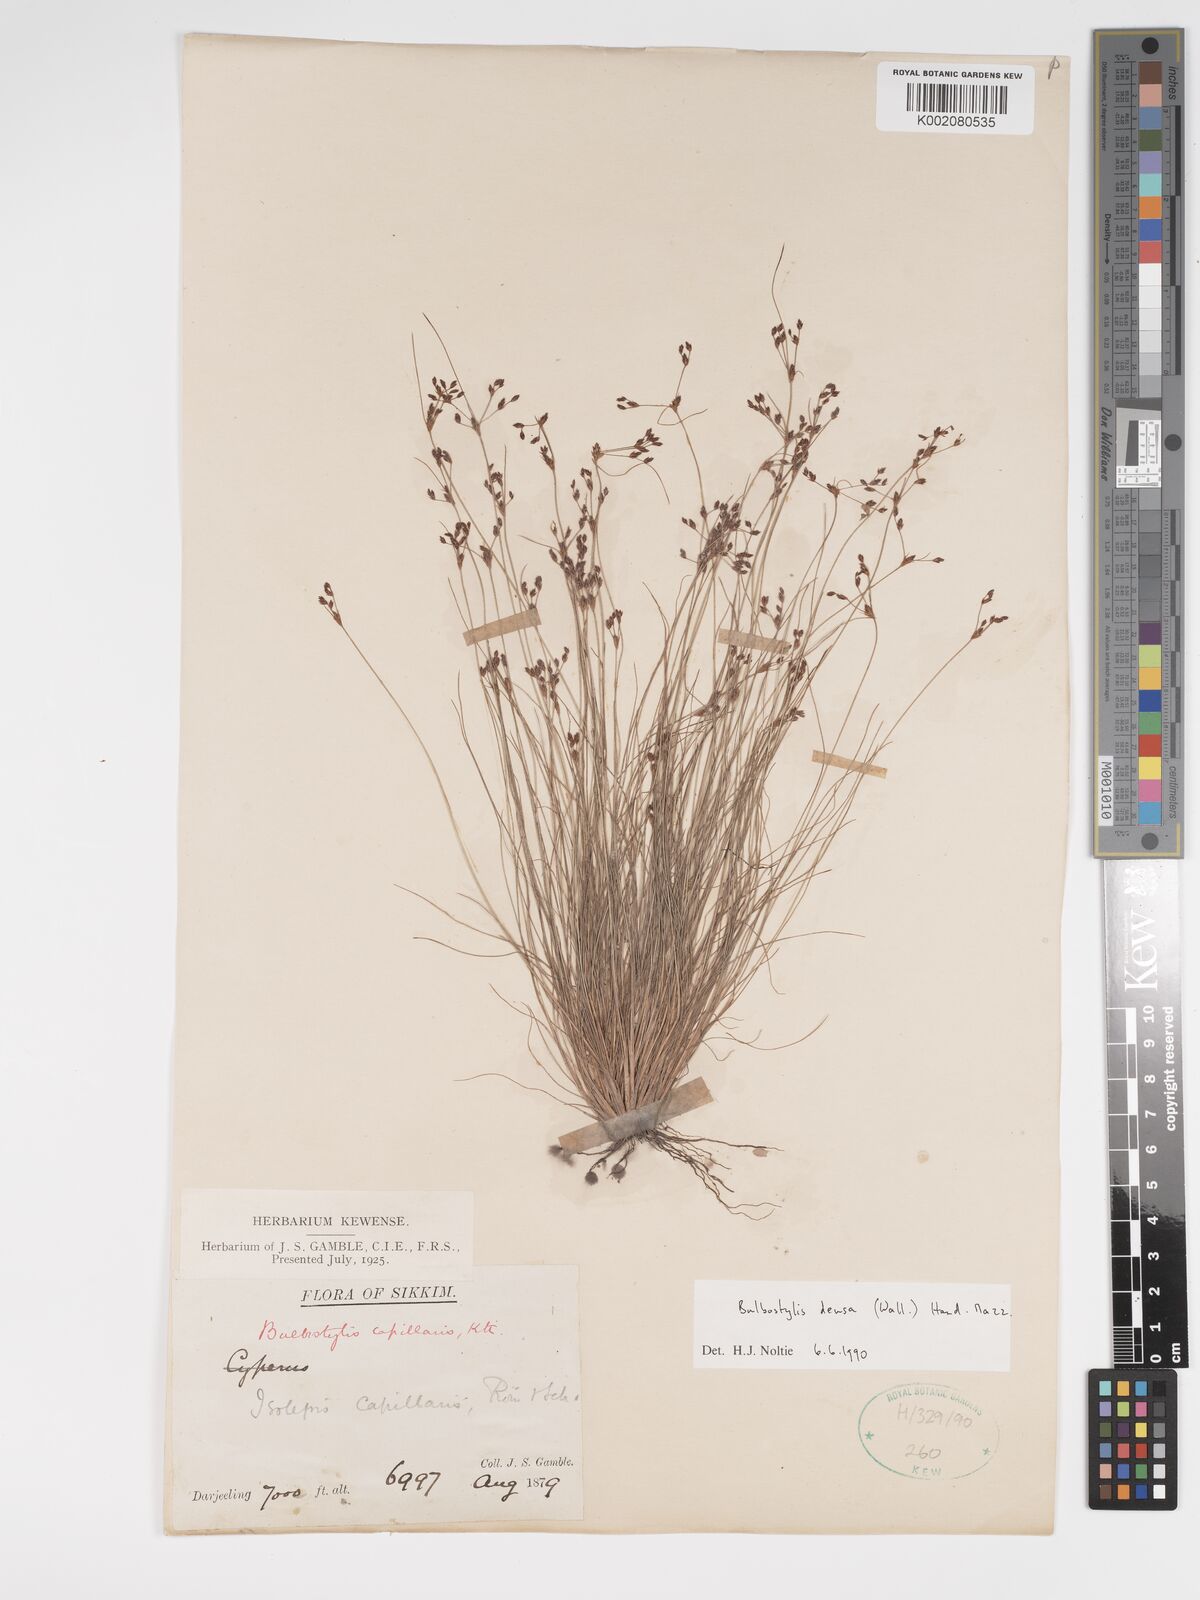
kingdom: Plantae
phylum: Tracheophyta
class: Liliopsida
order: Poales
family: Cyperaceae
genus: Bulbostylis
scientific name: Bulbostylis densa
